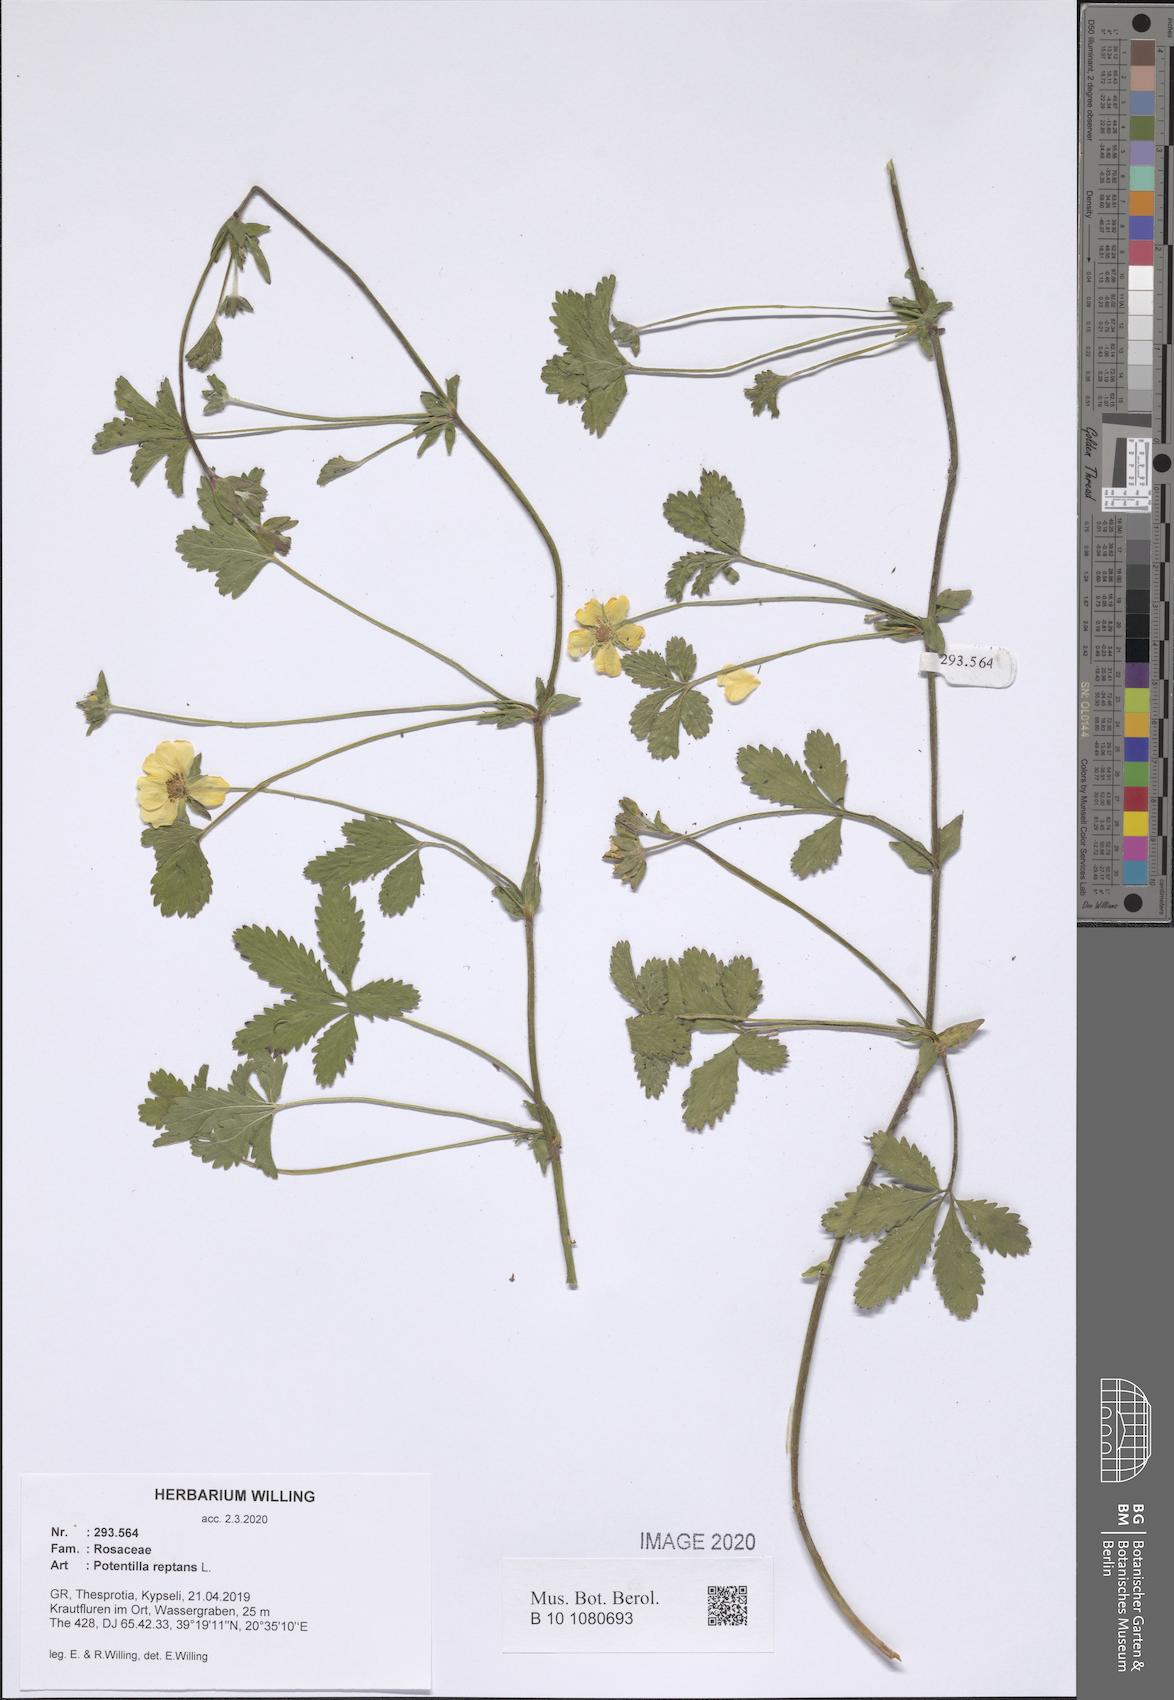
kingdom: Plantae
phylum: Tracheophyta
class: Magnoliopsida
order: Rosales
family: Rosaceae
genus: Potentilla
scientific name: Potentilla reptans
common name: Creeping cinquefoil
